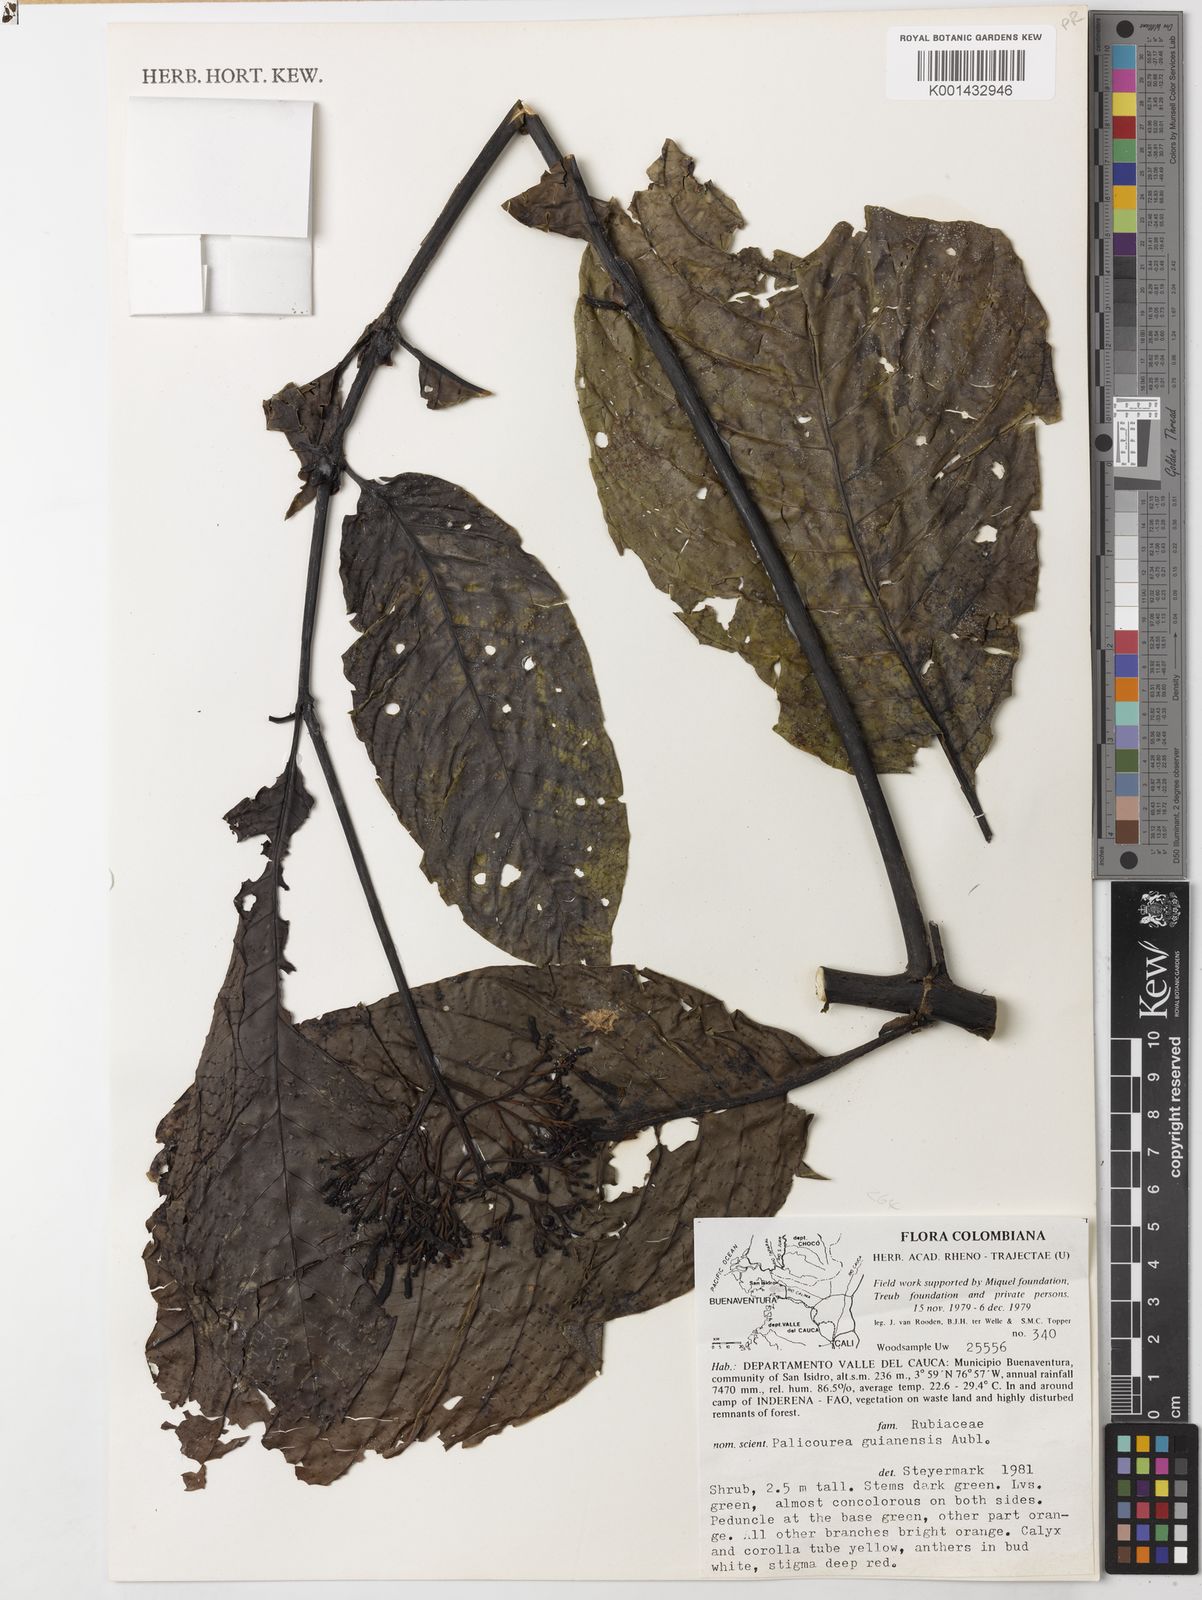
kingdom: Plantae
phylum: Tracheophyta
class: Magnoliopsida
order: Gentianales
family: Rubiaceae
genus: Palicourea
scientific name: Palicourea guianensis
